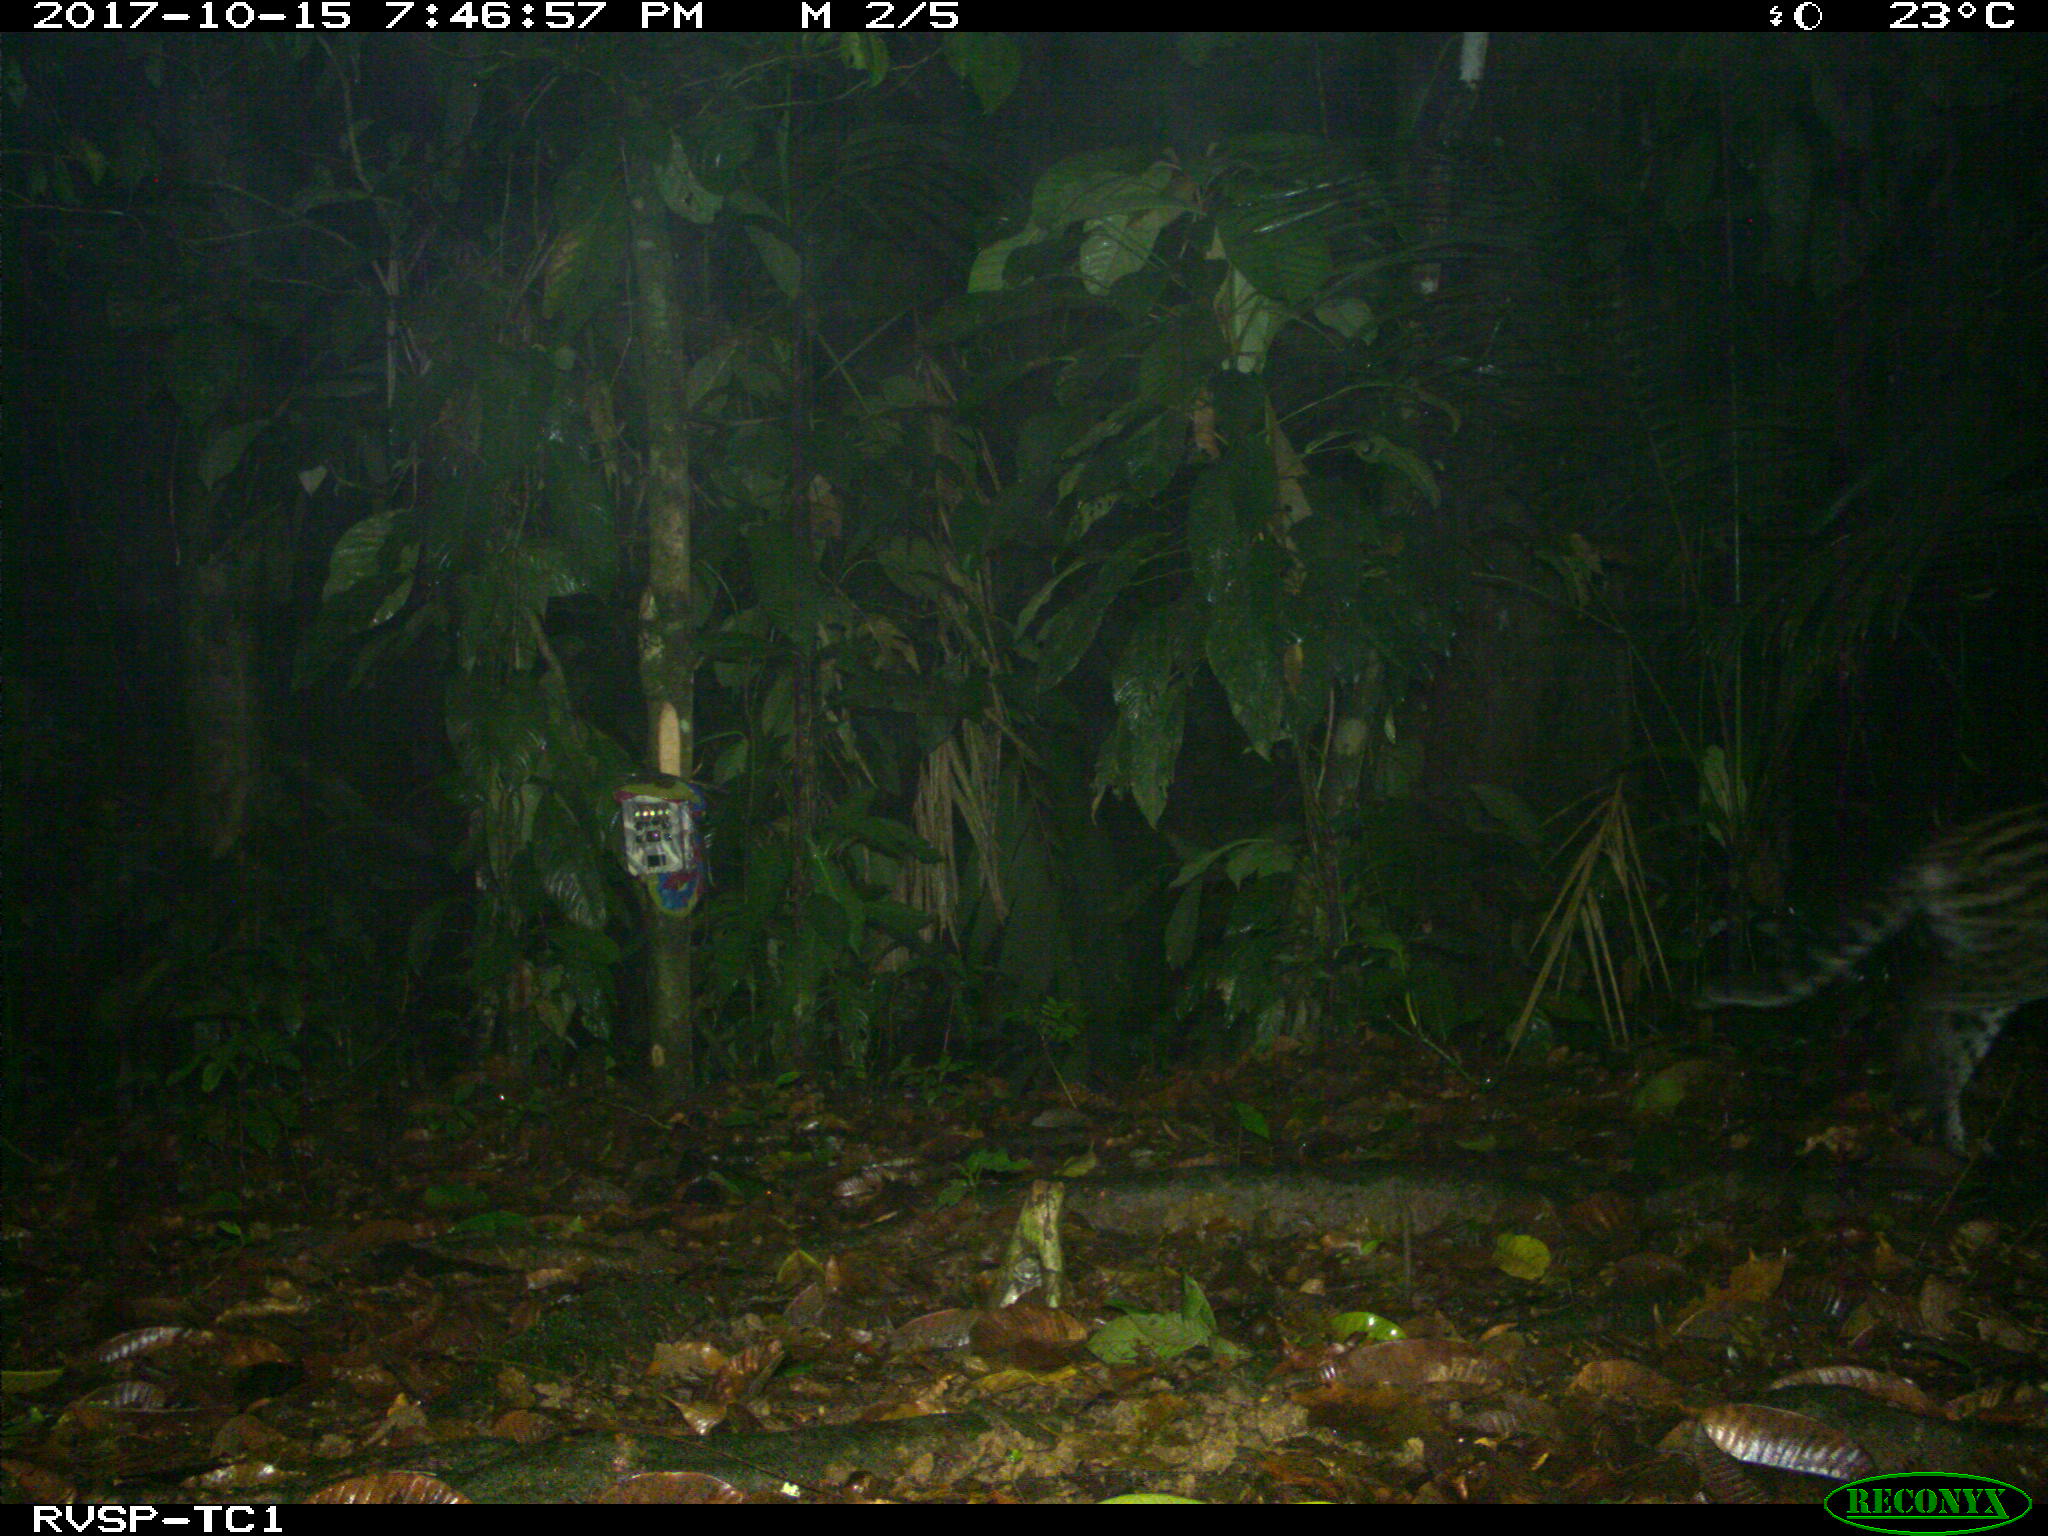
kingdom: Animalia
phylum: Chordata
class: Mammalia
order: Carnivora
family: Felidae
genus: Leopardus
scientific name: Leopardus pardalis
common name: Ocelot
